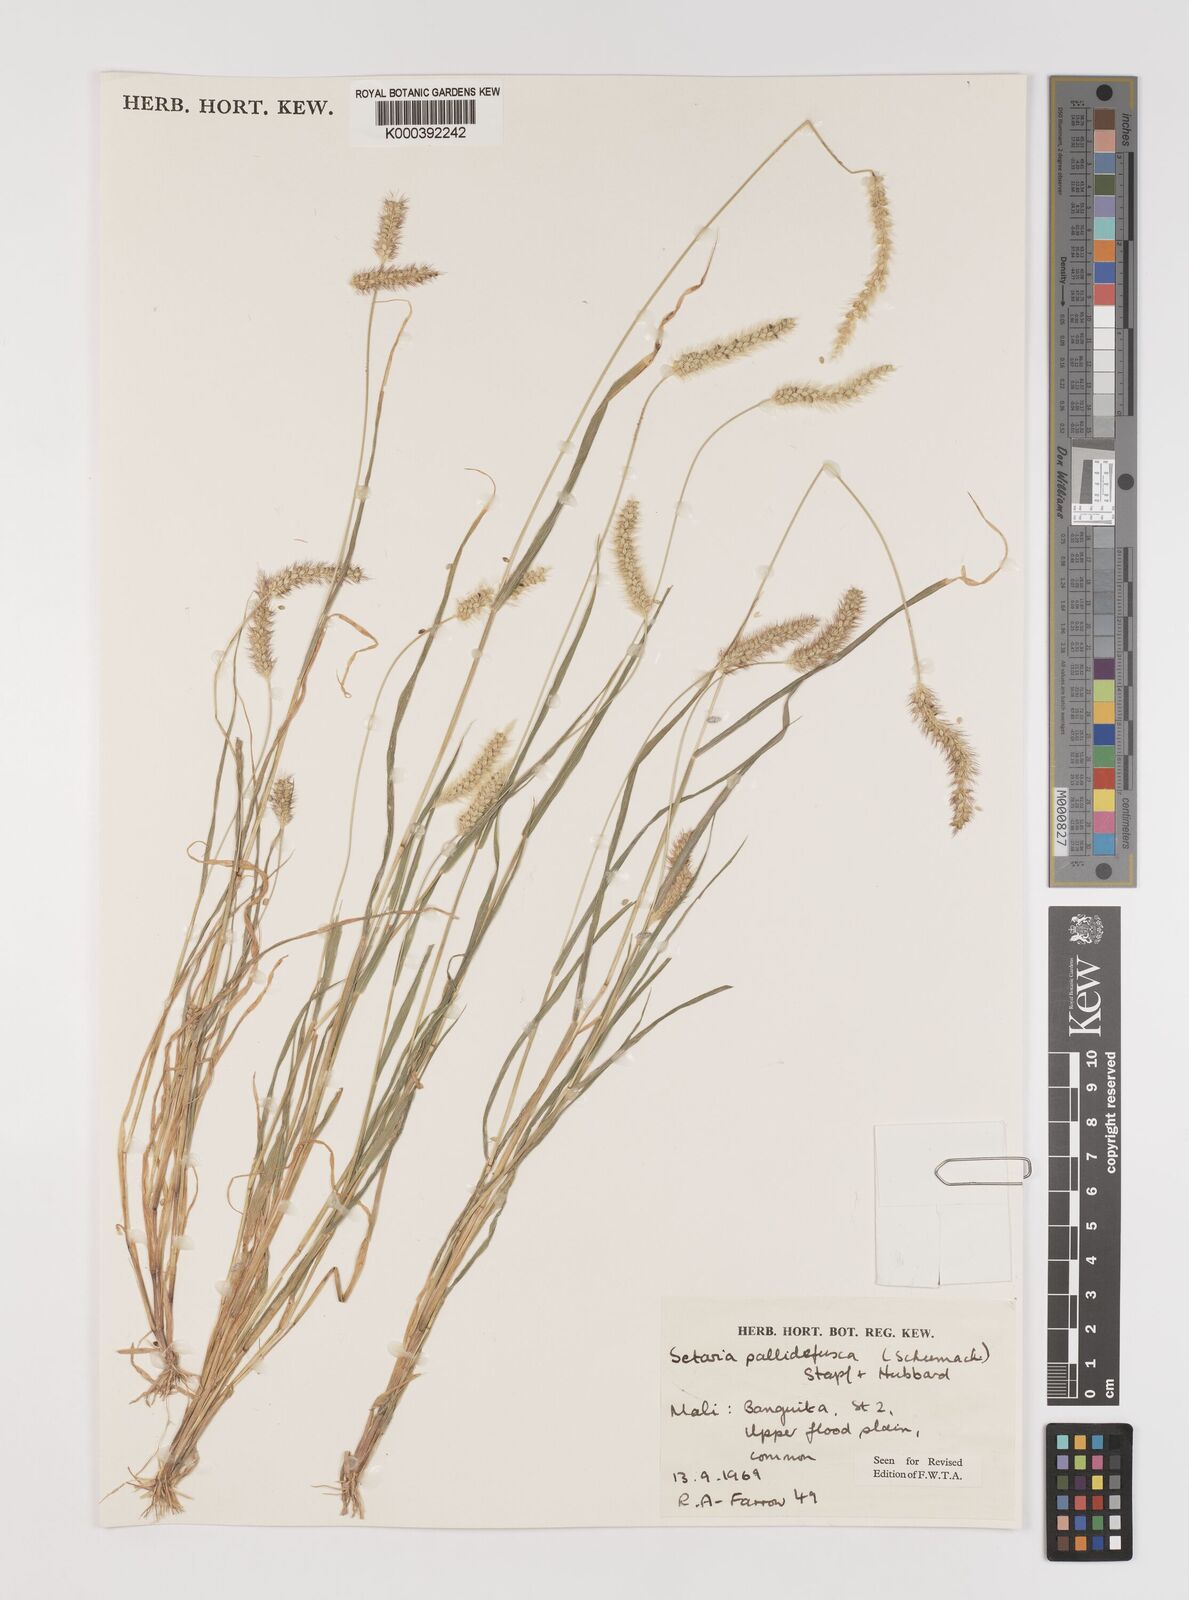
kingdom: Plantae
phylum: Tracheophyta
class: Liliopsida
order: Poales
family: Poaceae
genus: Setaria
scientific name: Setaria pumila
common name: Yellow bristle-grass
